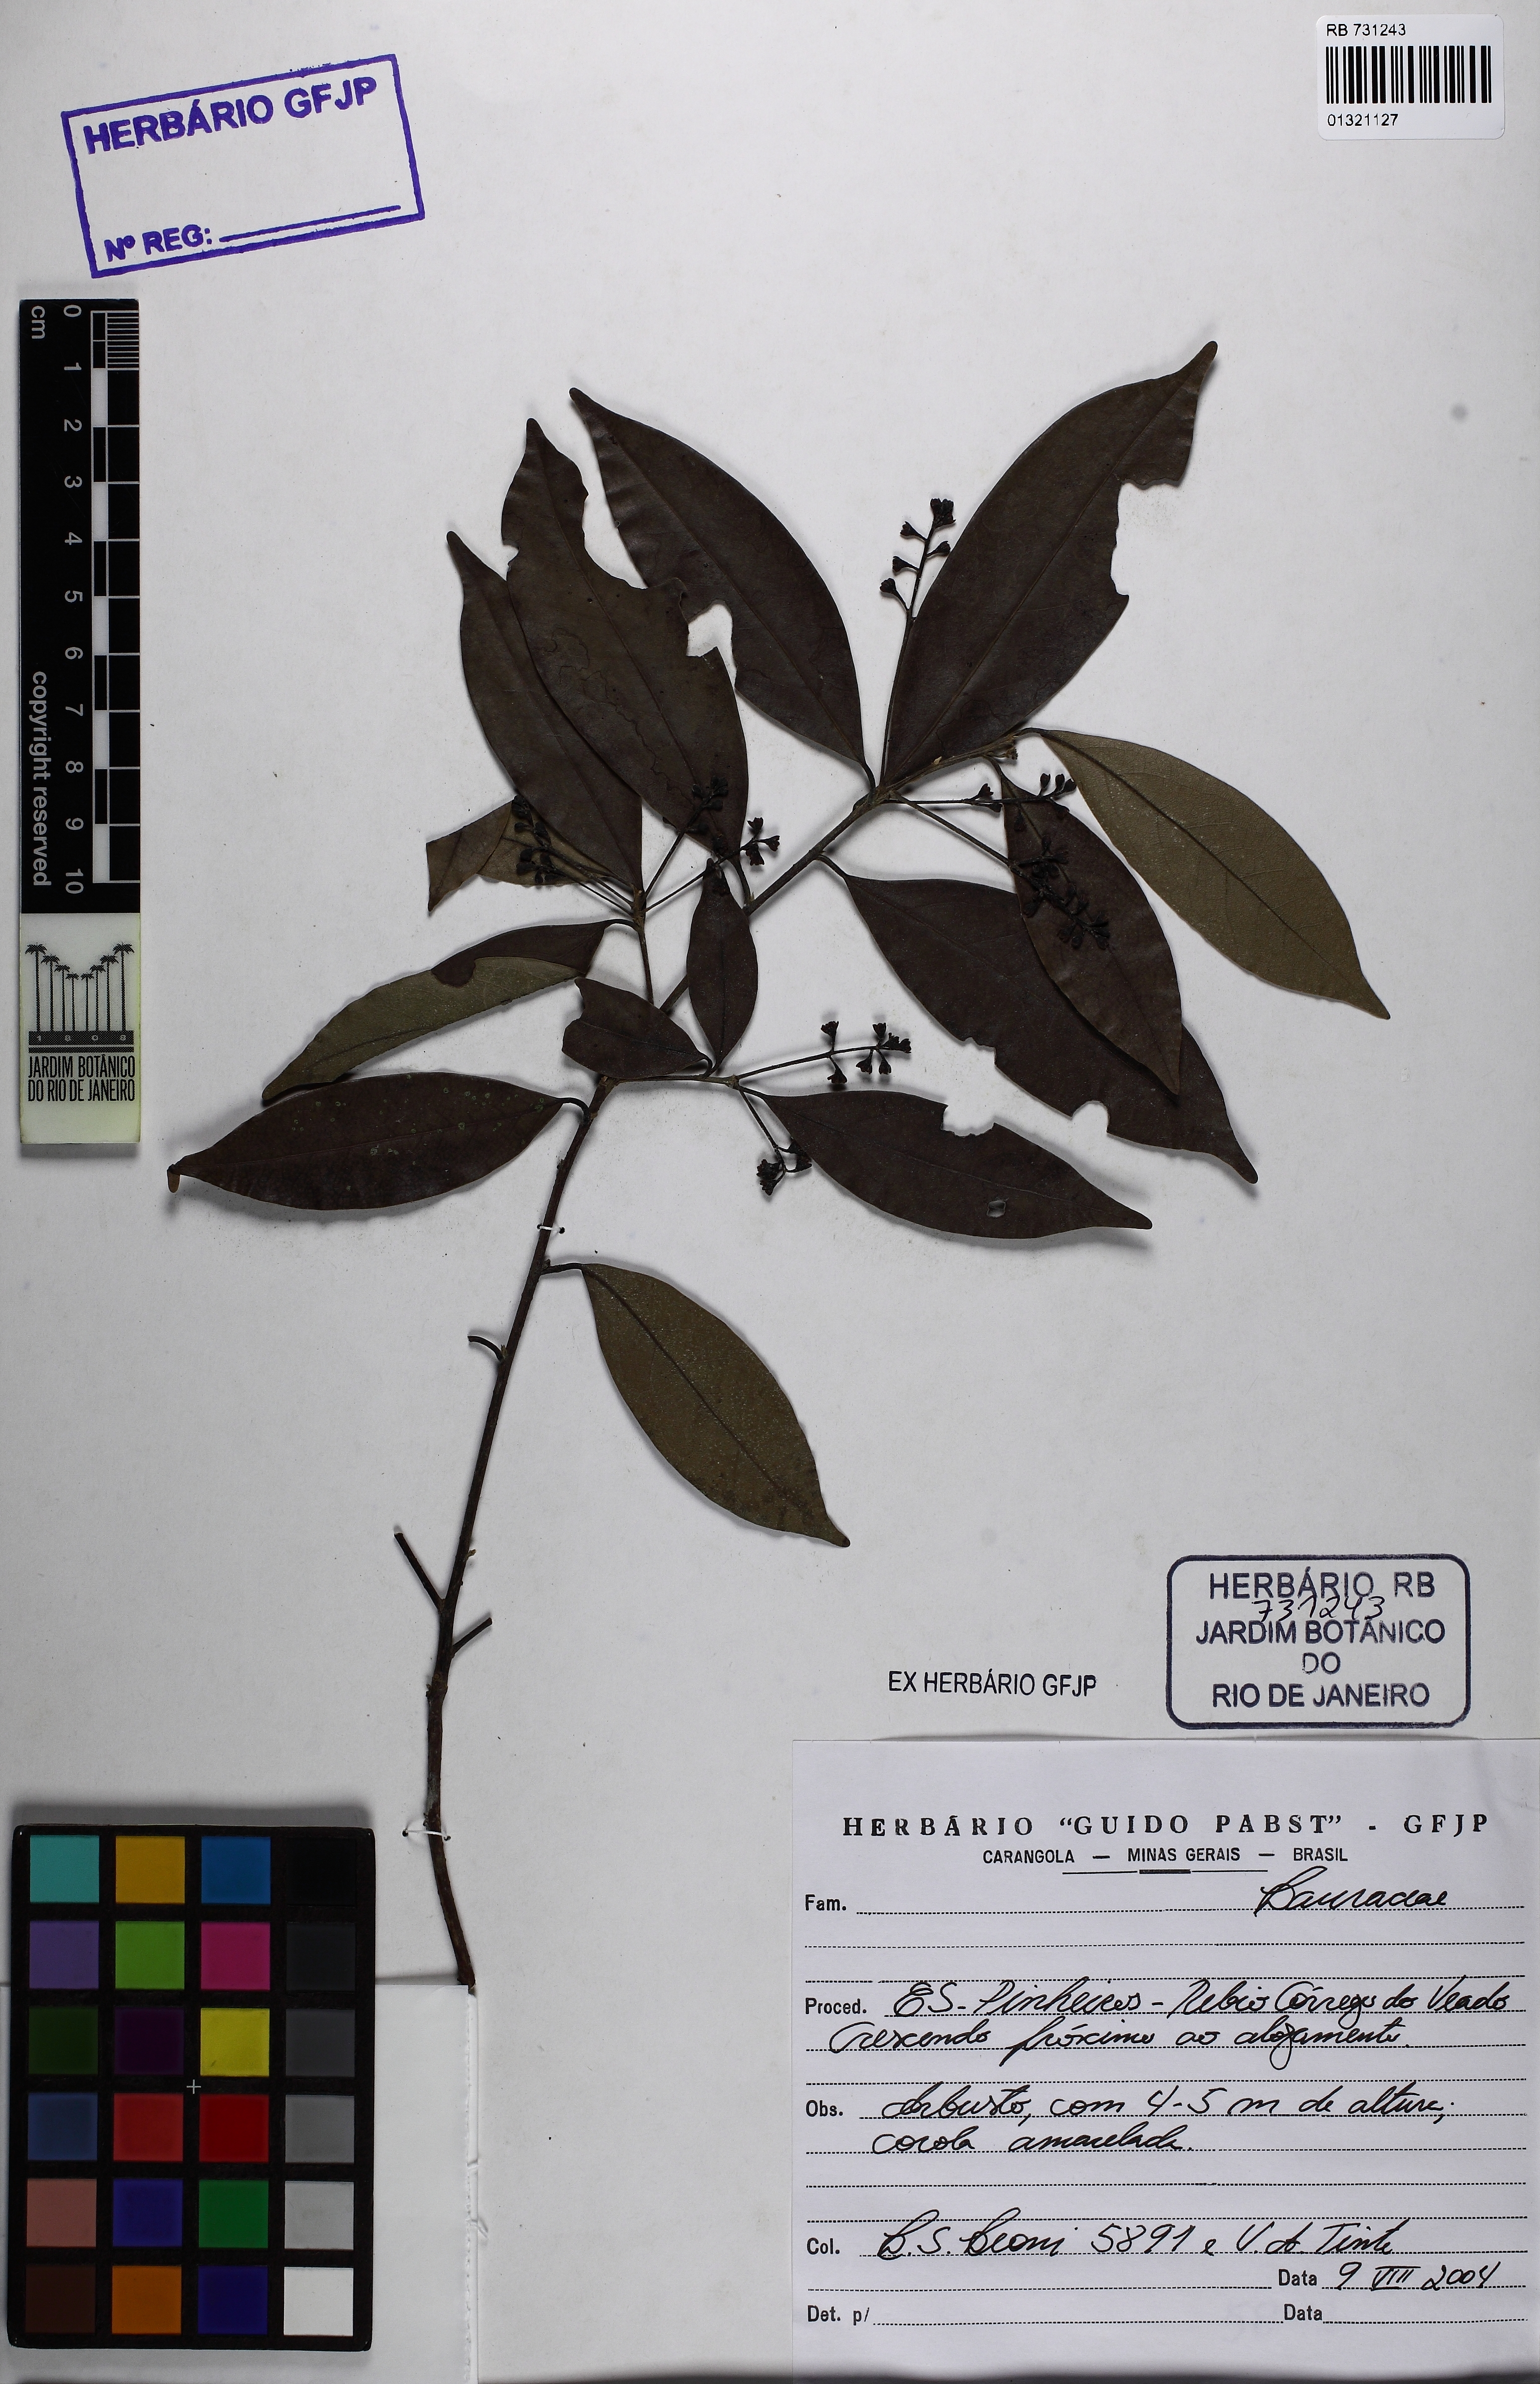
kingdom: Plantae
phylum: Tracheophyta
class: Magnoliopsida
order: Laurales
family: Lauraceae
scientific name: Lauraceae
